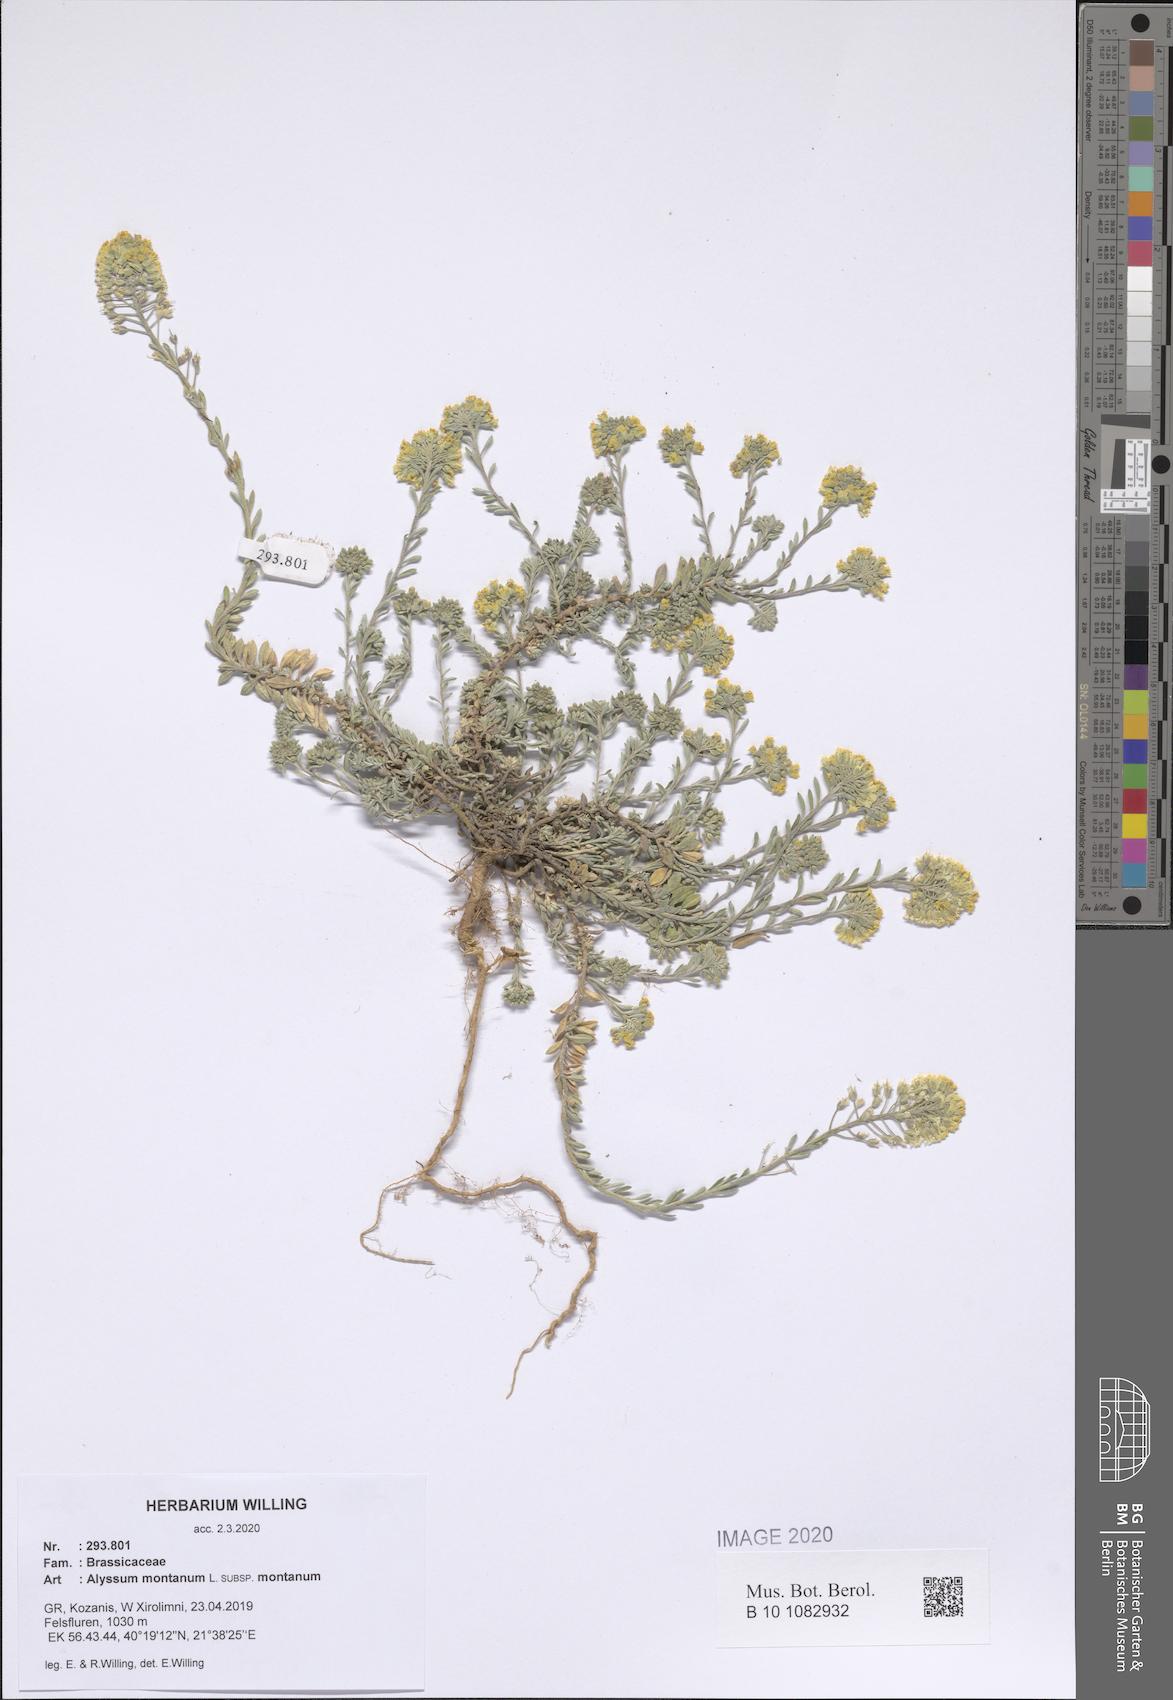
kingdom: Plantae
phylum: Tracheophyta
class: Magnoliopsida
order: Brassicales
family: Brassicaceae
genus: Alyssum
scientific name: Alyssum montanum
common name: Mountain alison
